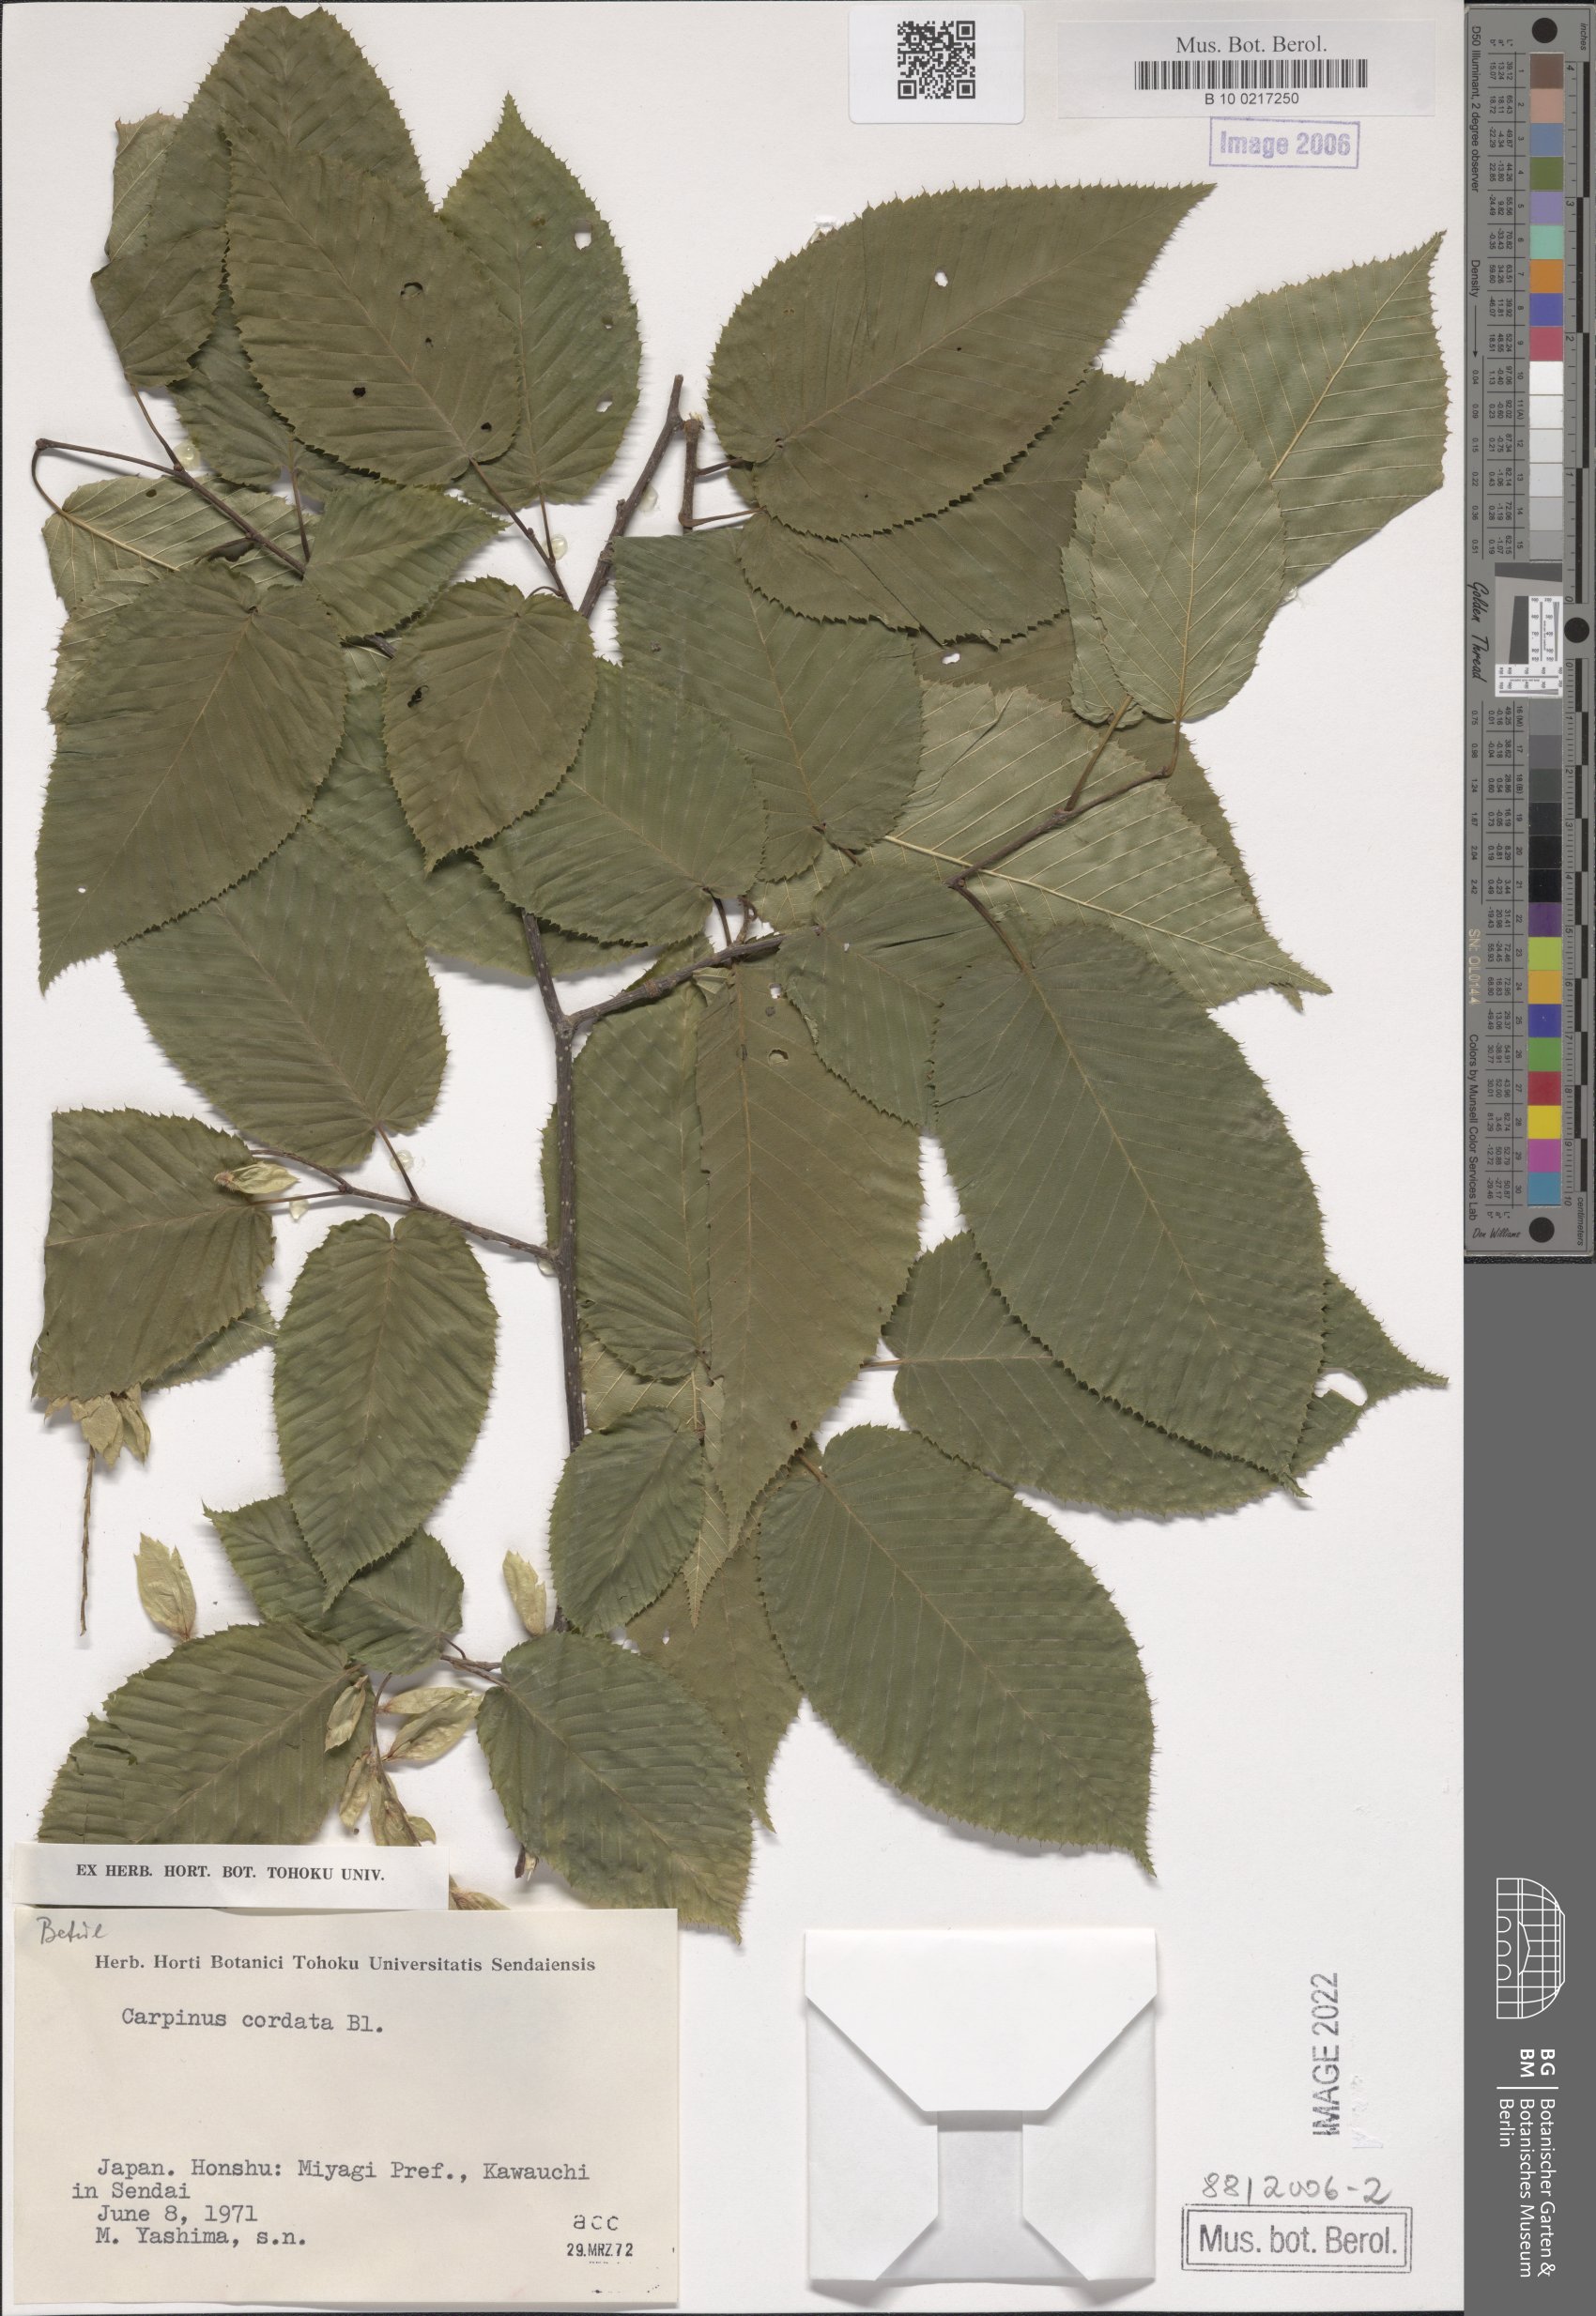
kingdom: Plantae
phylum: Tracheophyta
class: Magnoliopsida
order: Fagales
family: Betulaceae
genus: Carpinus
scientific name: Carpinus cordata
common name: Sawa hornbeam
